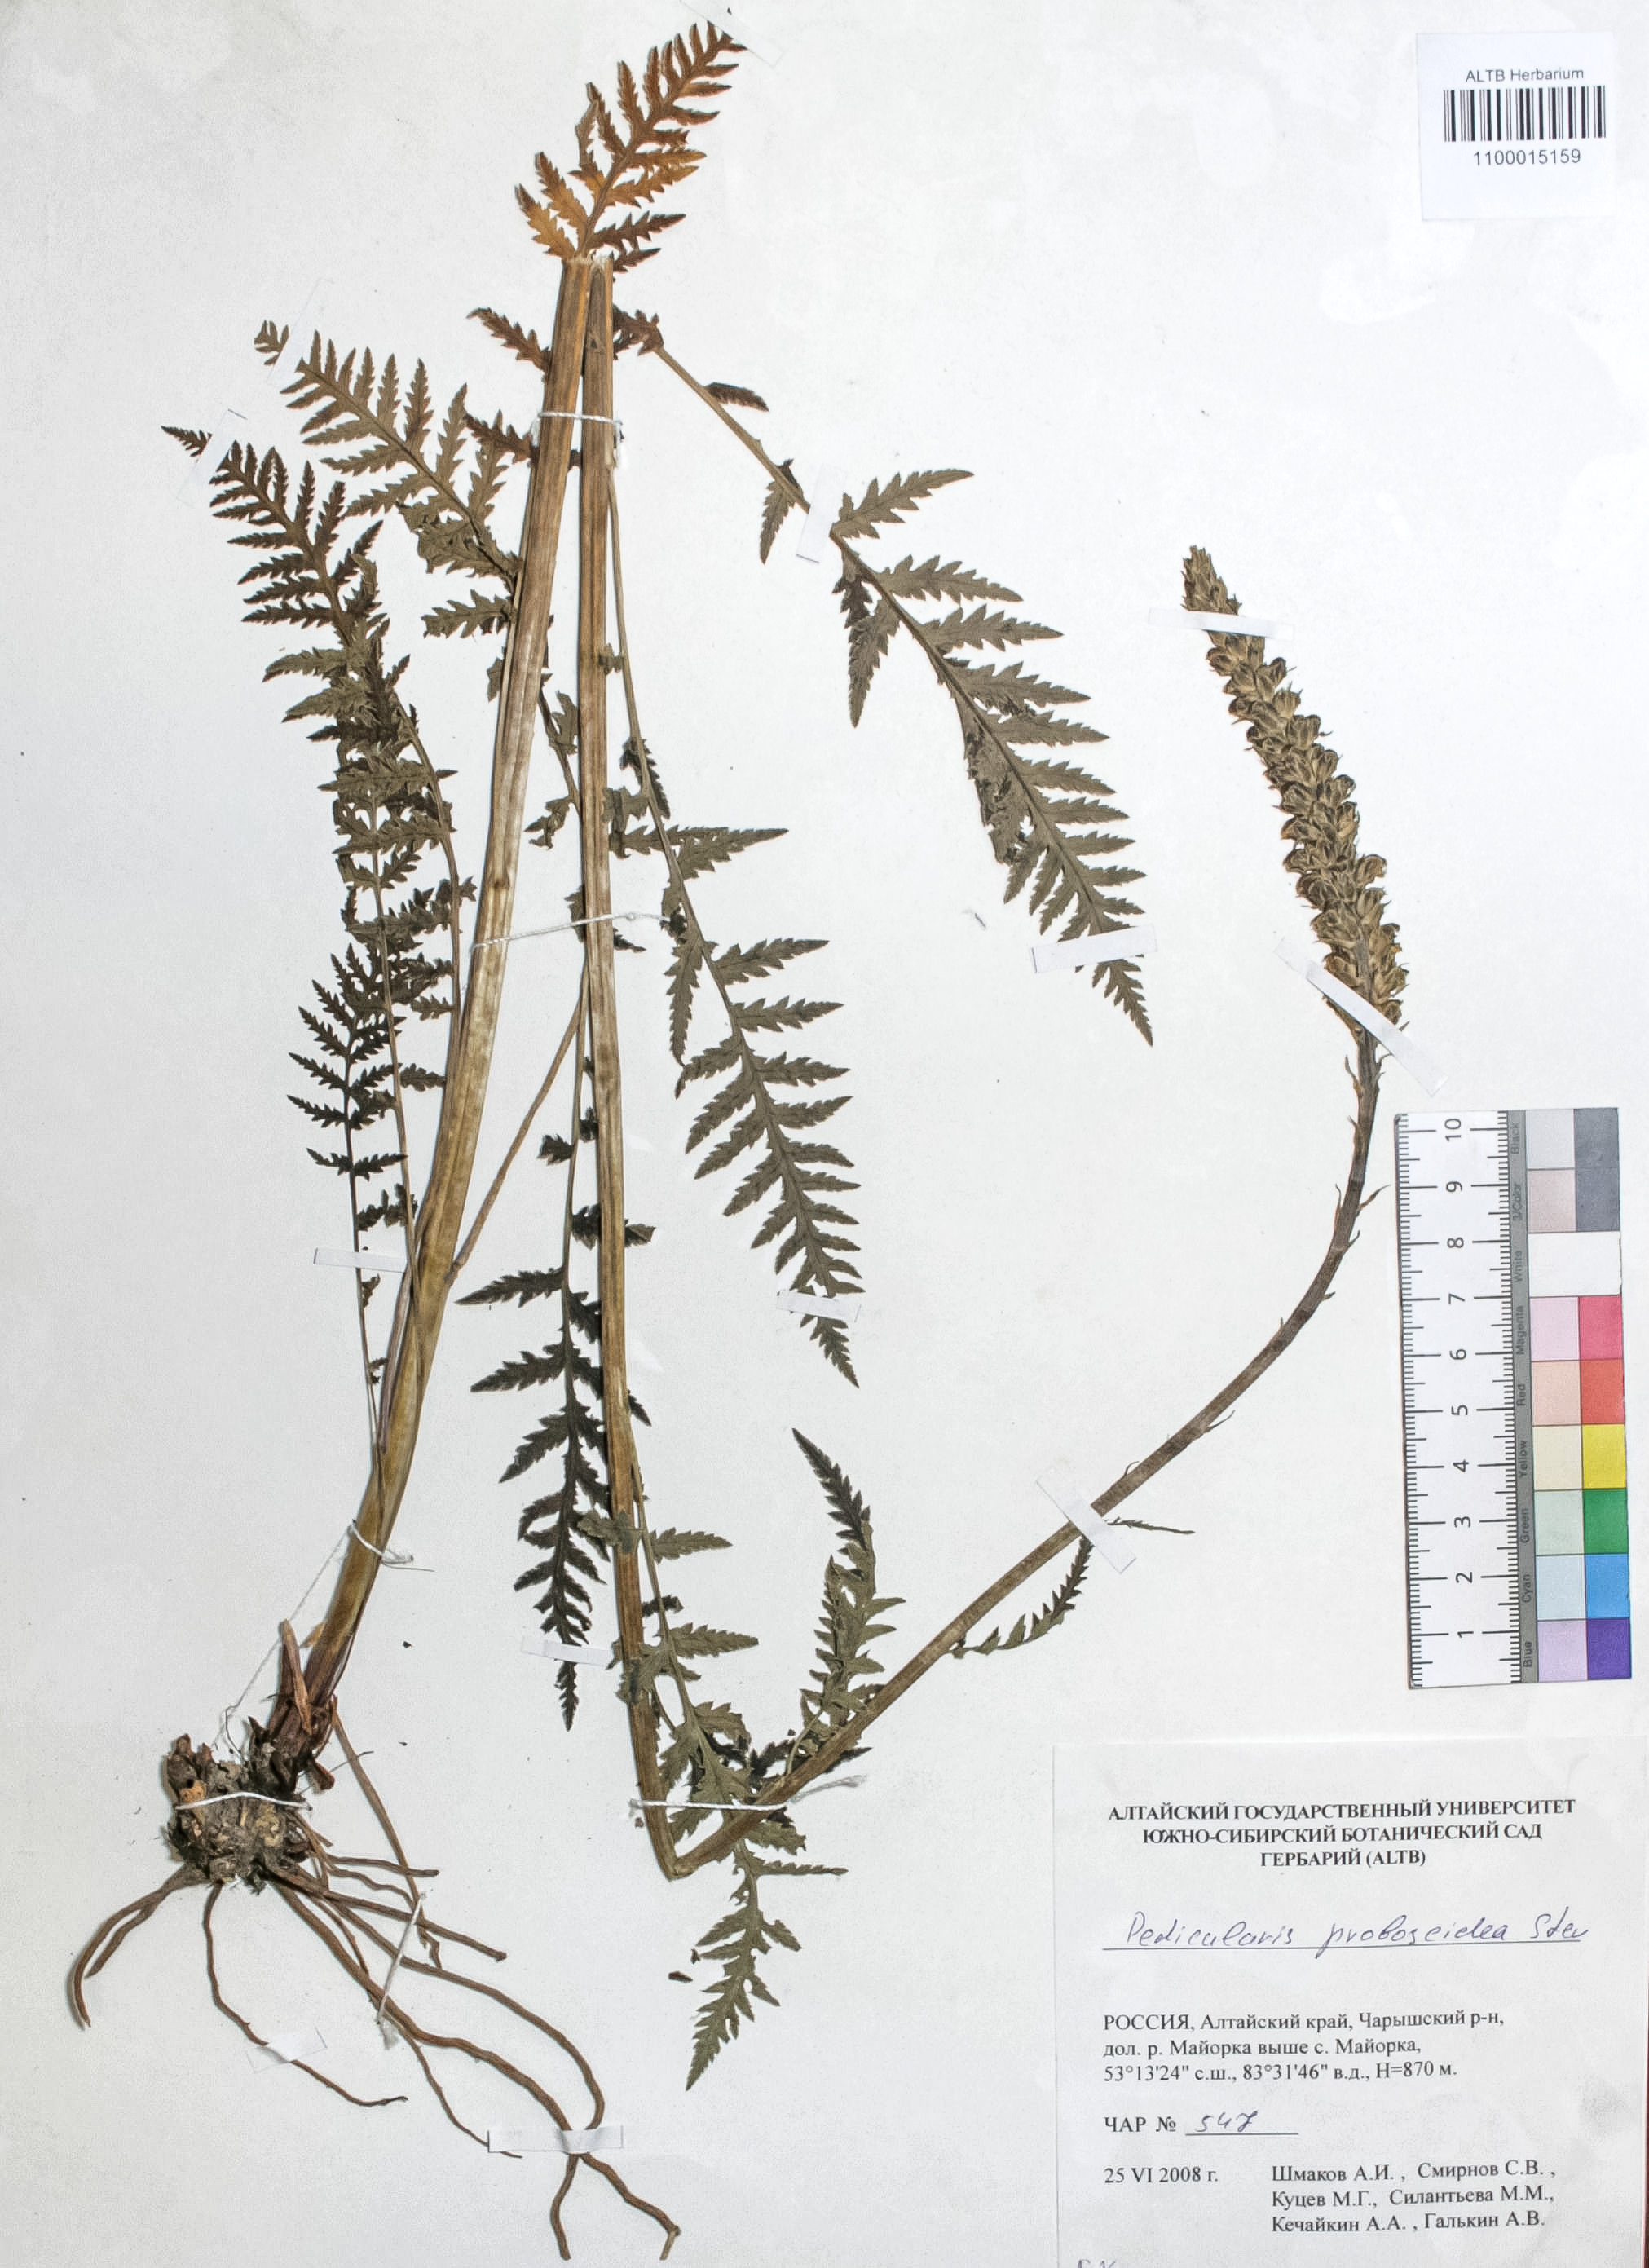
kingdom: Plantae
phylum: Tracheophyta
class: Magnoliopsida
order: Lamiales
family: Orobanchaceae
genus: Pedicularis
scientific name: Pedicularis proboscidea
